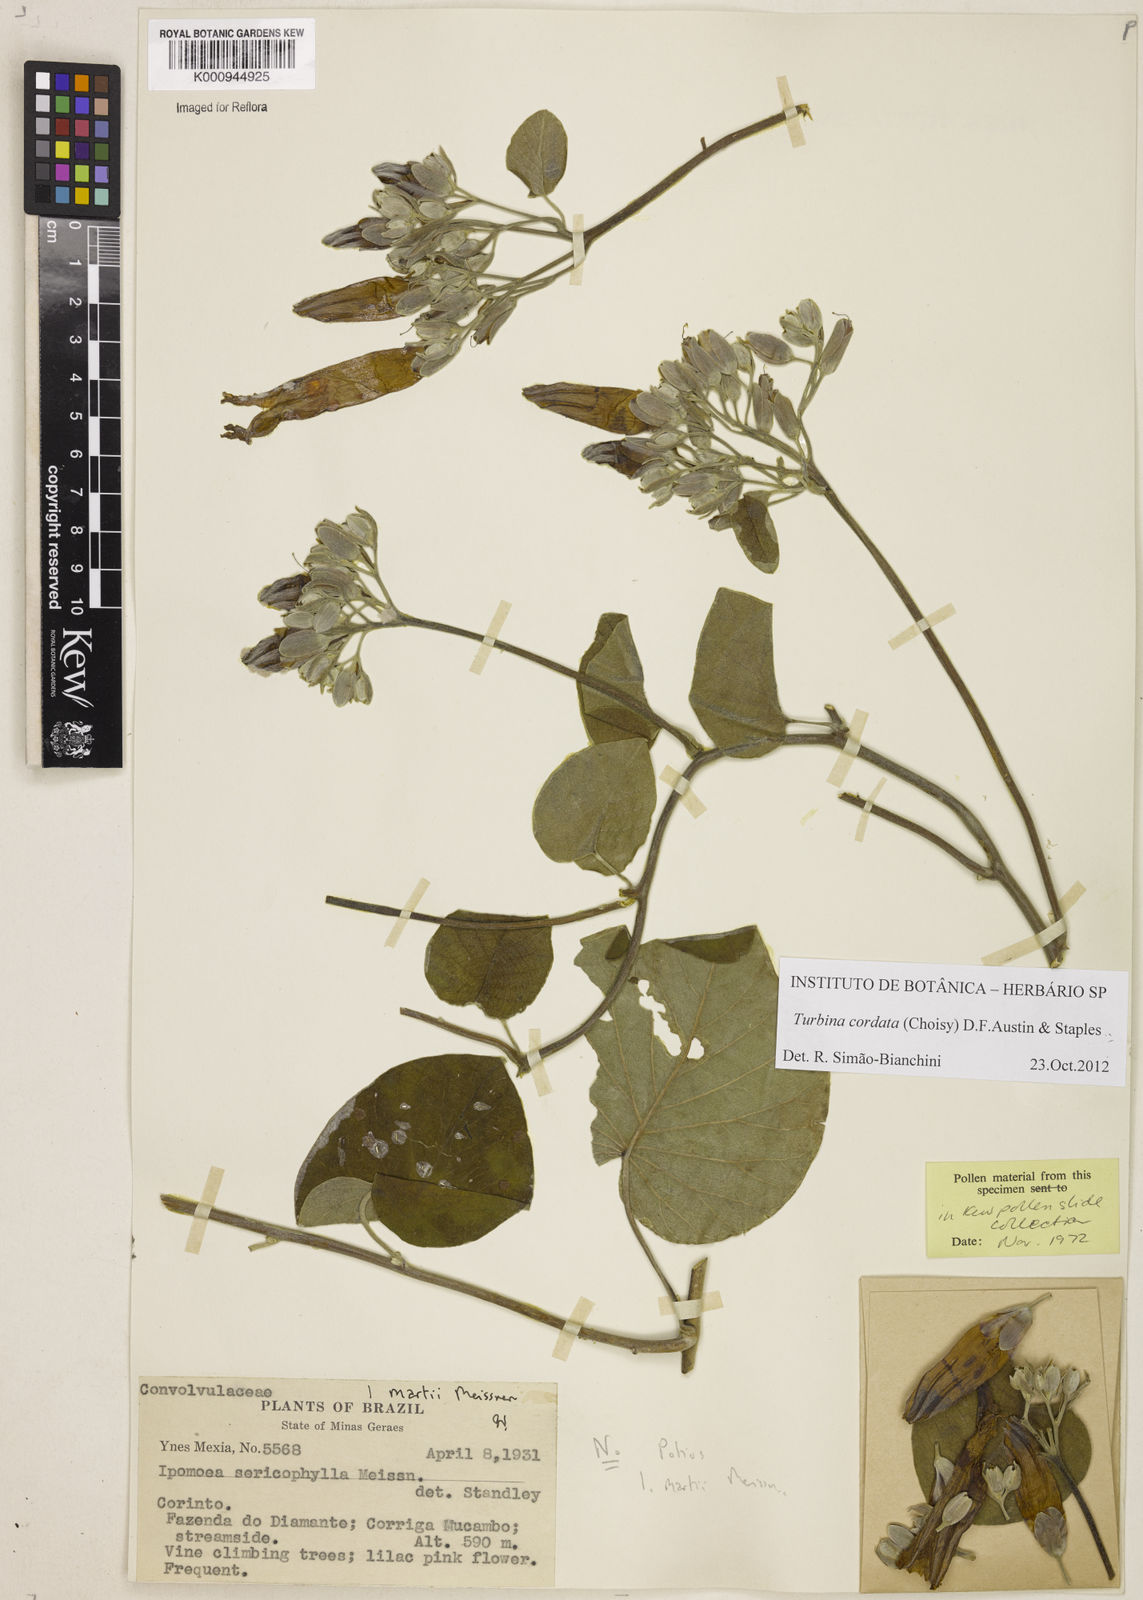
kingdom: Animalia
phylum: Mollusca
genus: Turbina
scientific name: Turbina
